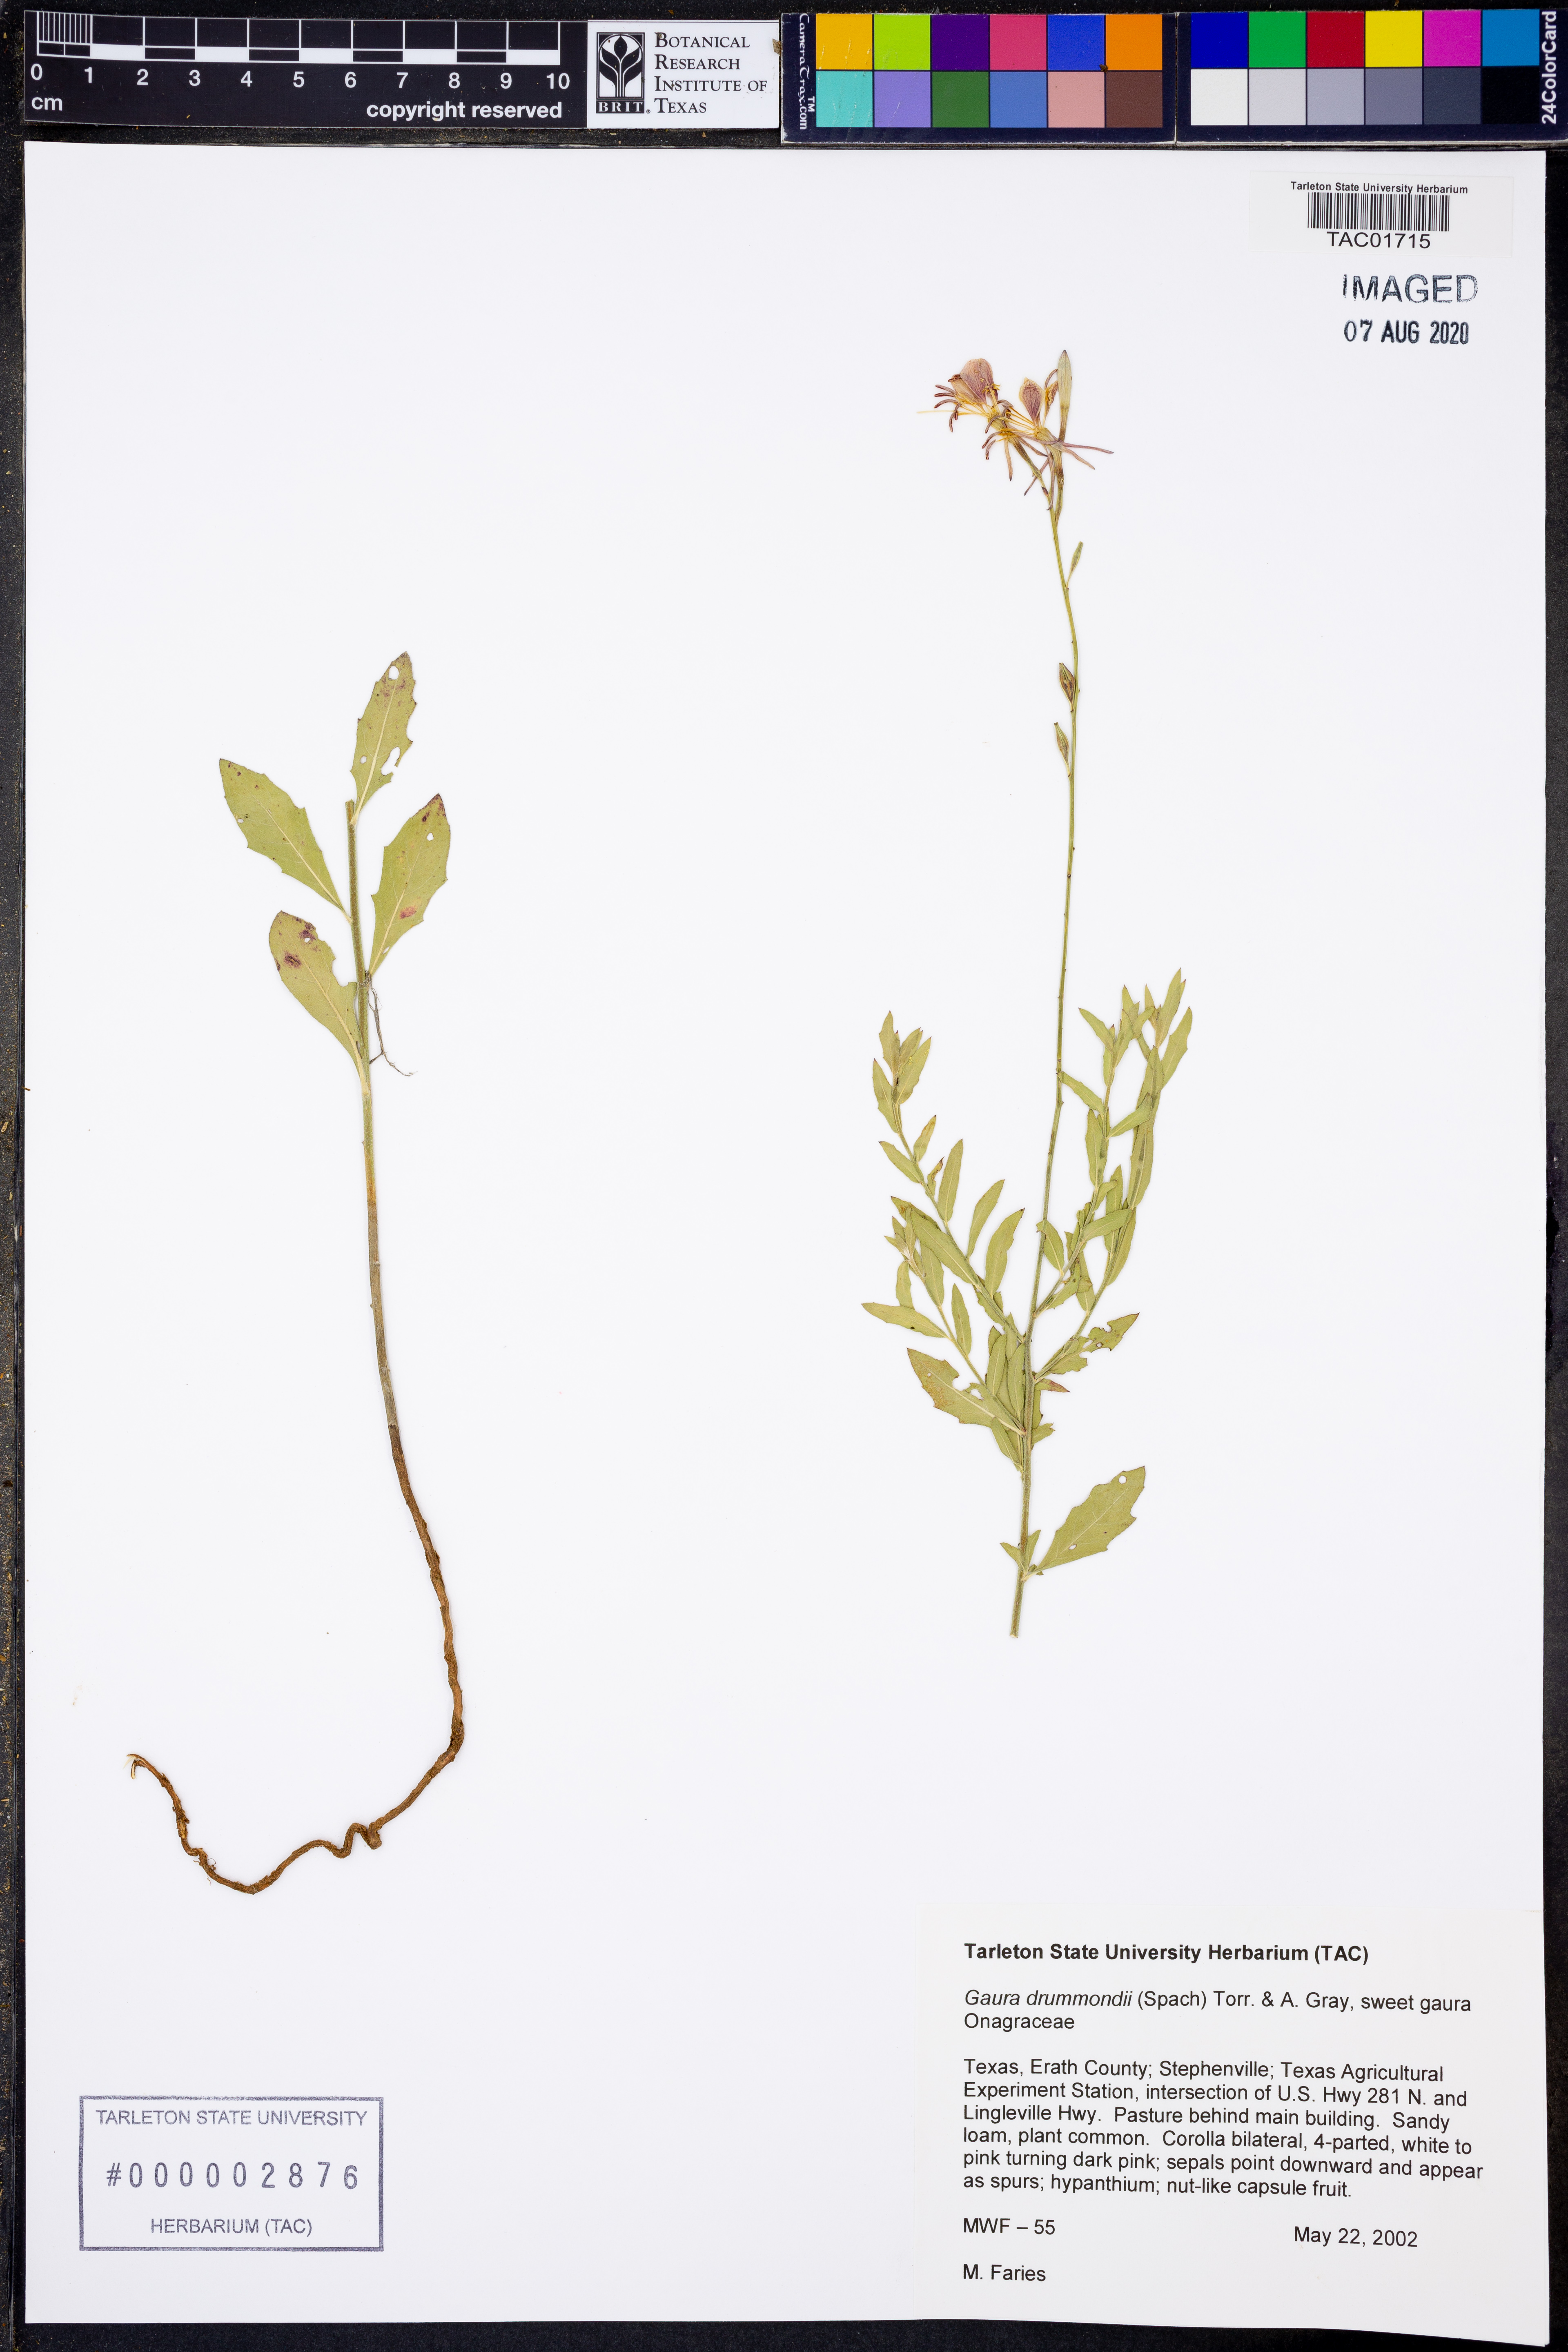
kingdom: Plantae
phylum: Tracheophyta
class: Magnoliopsida
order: Myrtales
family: Onagraceae
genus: Oenothera
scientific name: Oenothera hispida
